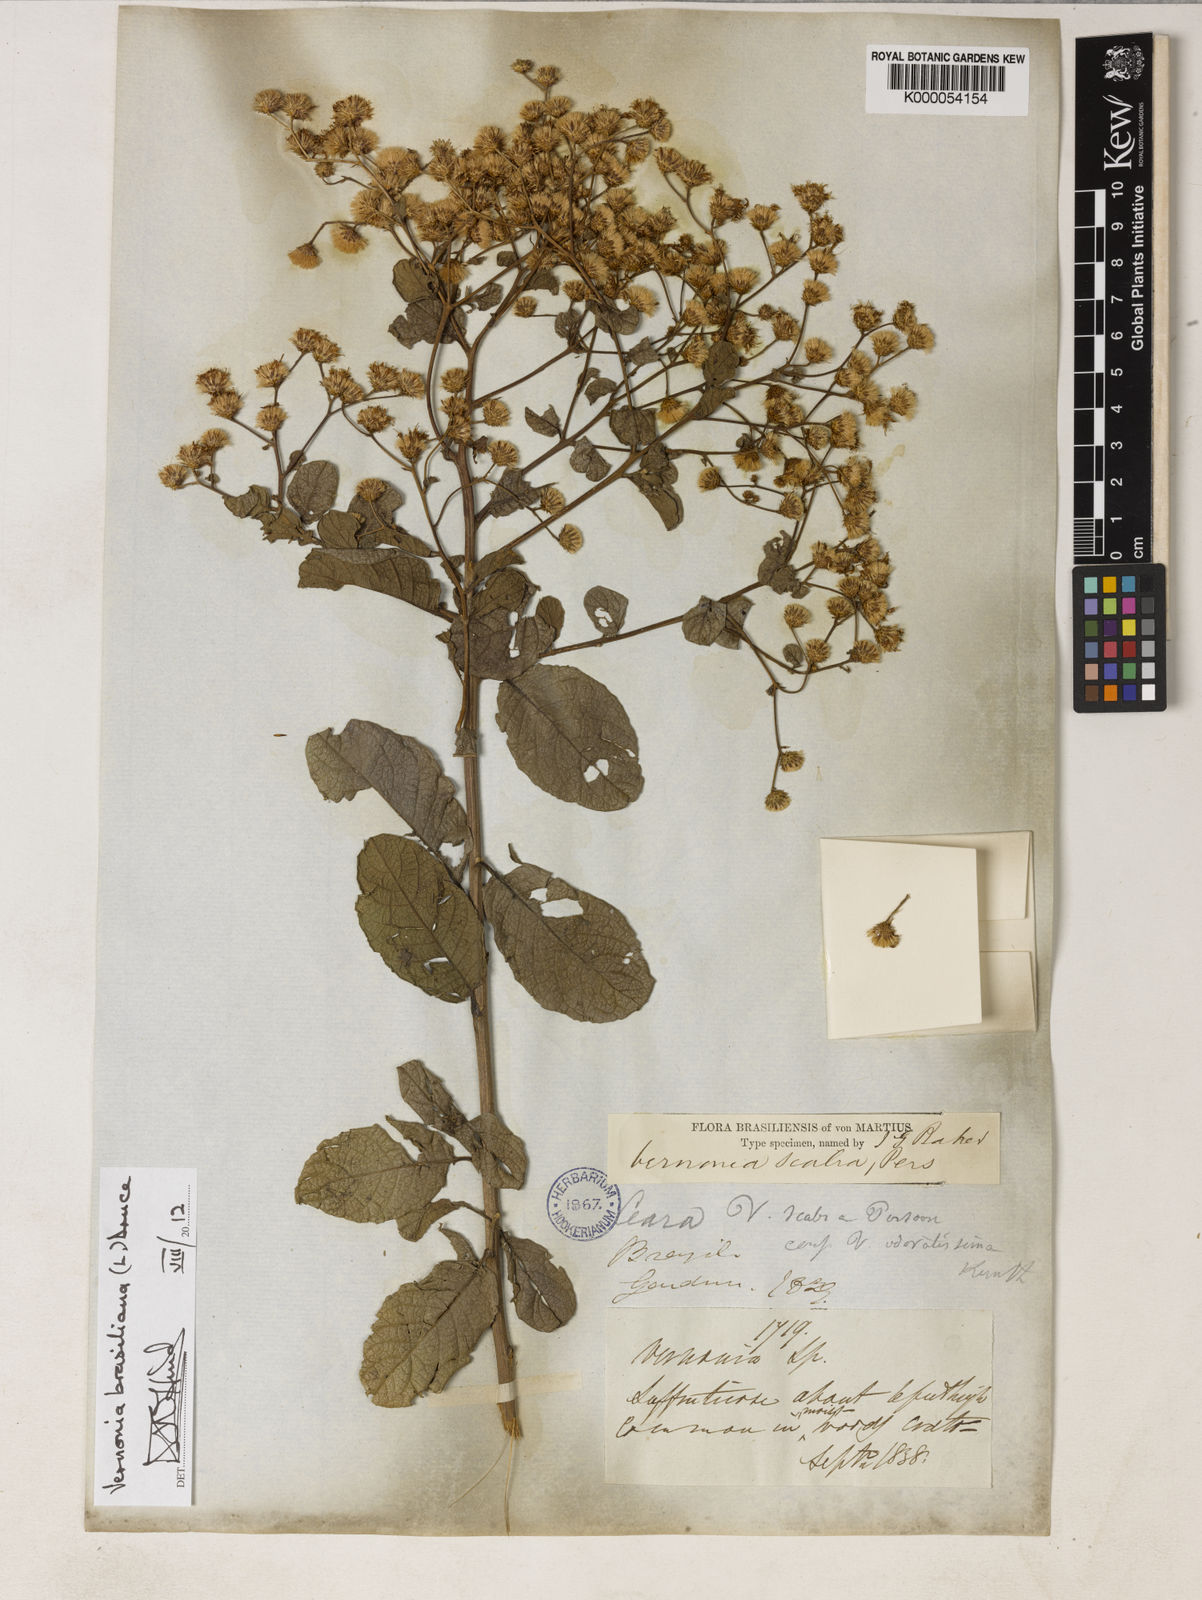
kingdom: Plantae
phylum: Tracheophyta
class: Magnoliopsida
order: Asterales
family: Asteraceae
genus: Vernonanthura
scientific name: Vernonanthura brasiliana
